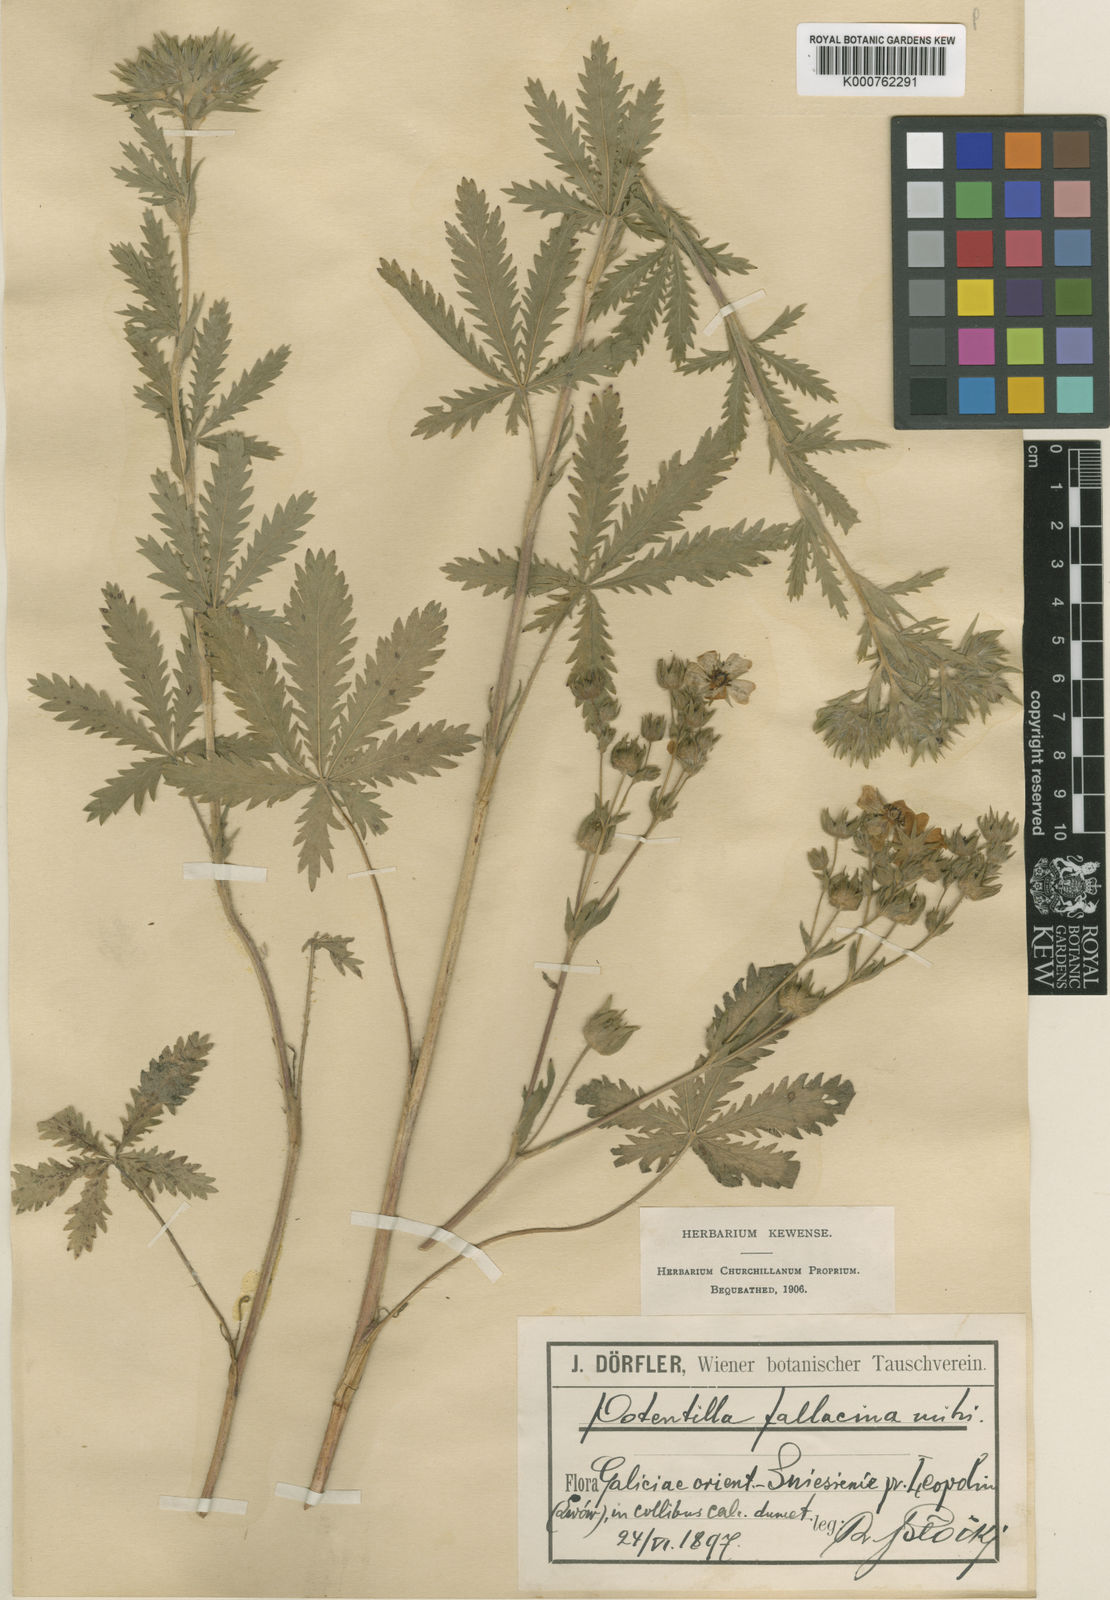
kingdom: Plantae
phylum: Tracheophyta
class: Magnoliopsida
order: Rosales
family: Rosaceae
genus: Potentilla
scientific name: Potentilla recta
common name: Sulphur cinquefoil
